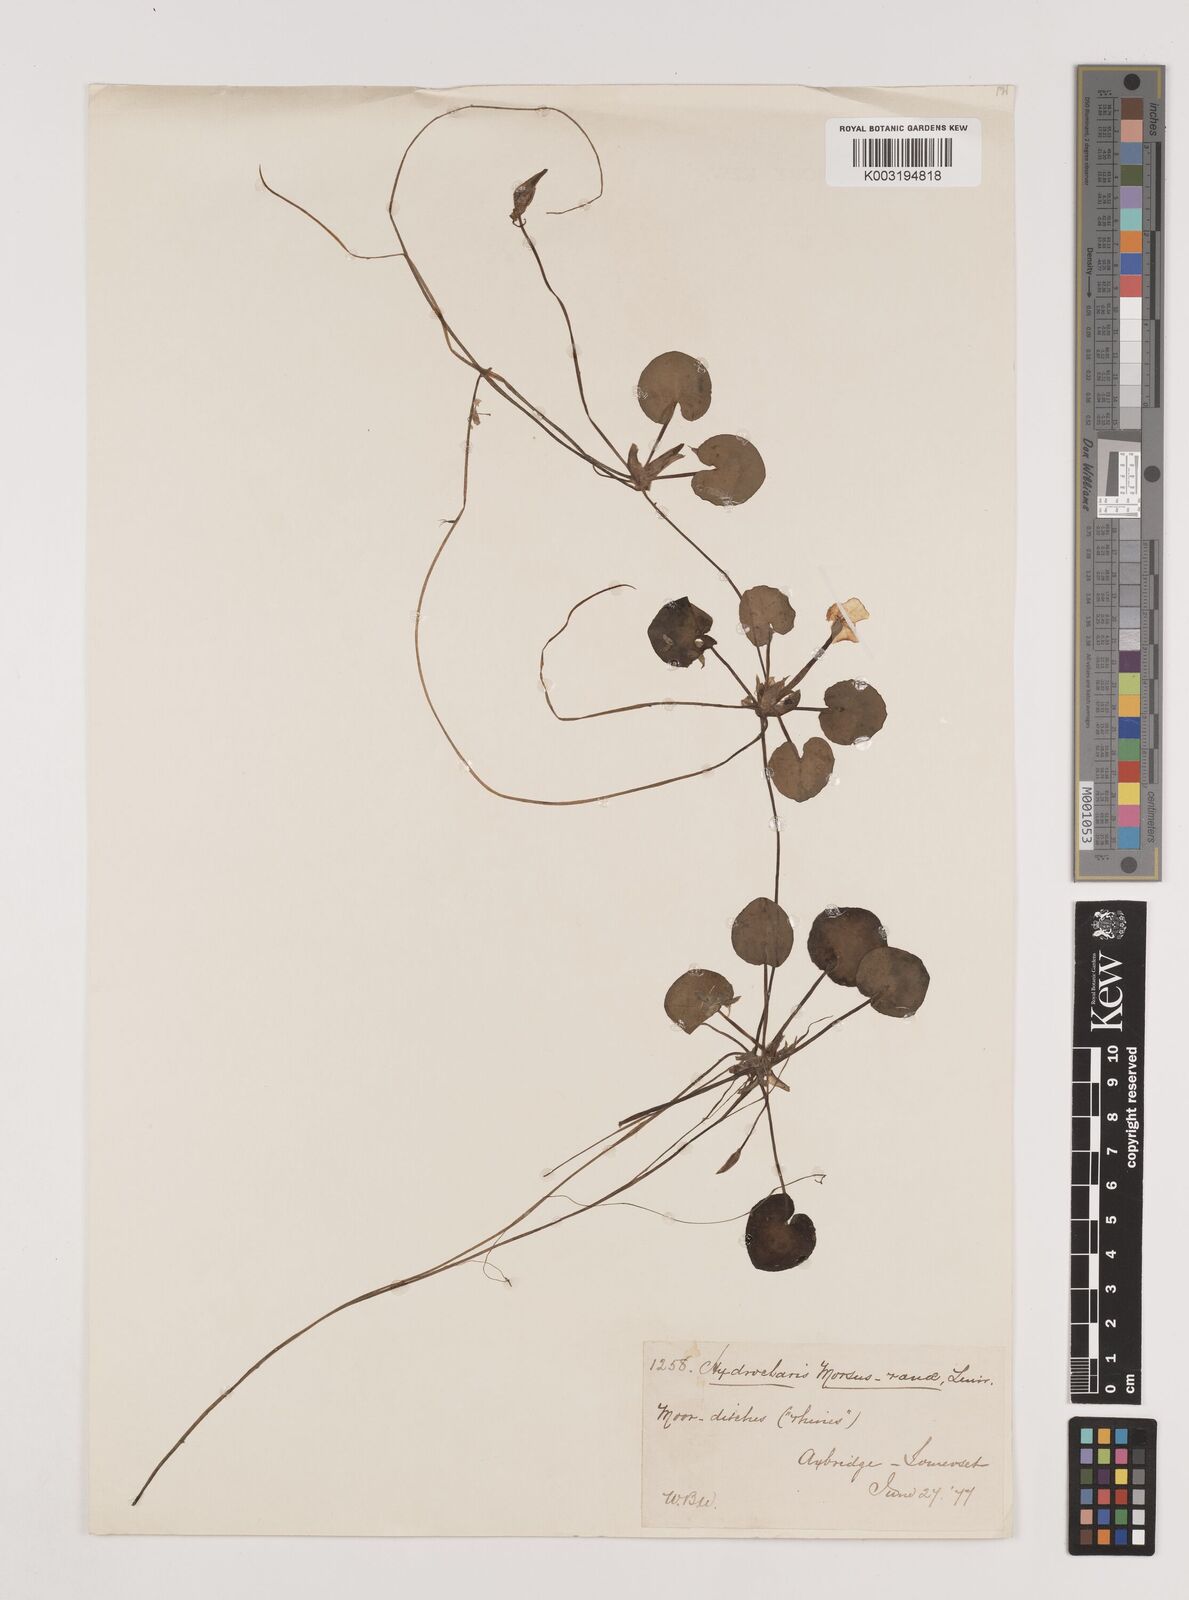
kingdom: Plantae
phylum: Tracheophyta
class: Liliopsida
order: Alismatales
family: Hydrocharitaceae
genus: Hydrocharis
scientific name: Hydrocharis morsus-ranae
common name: Frogbit
